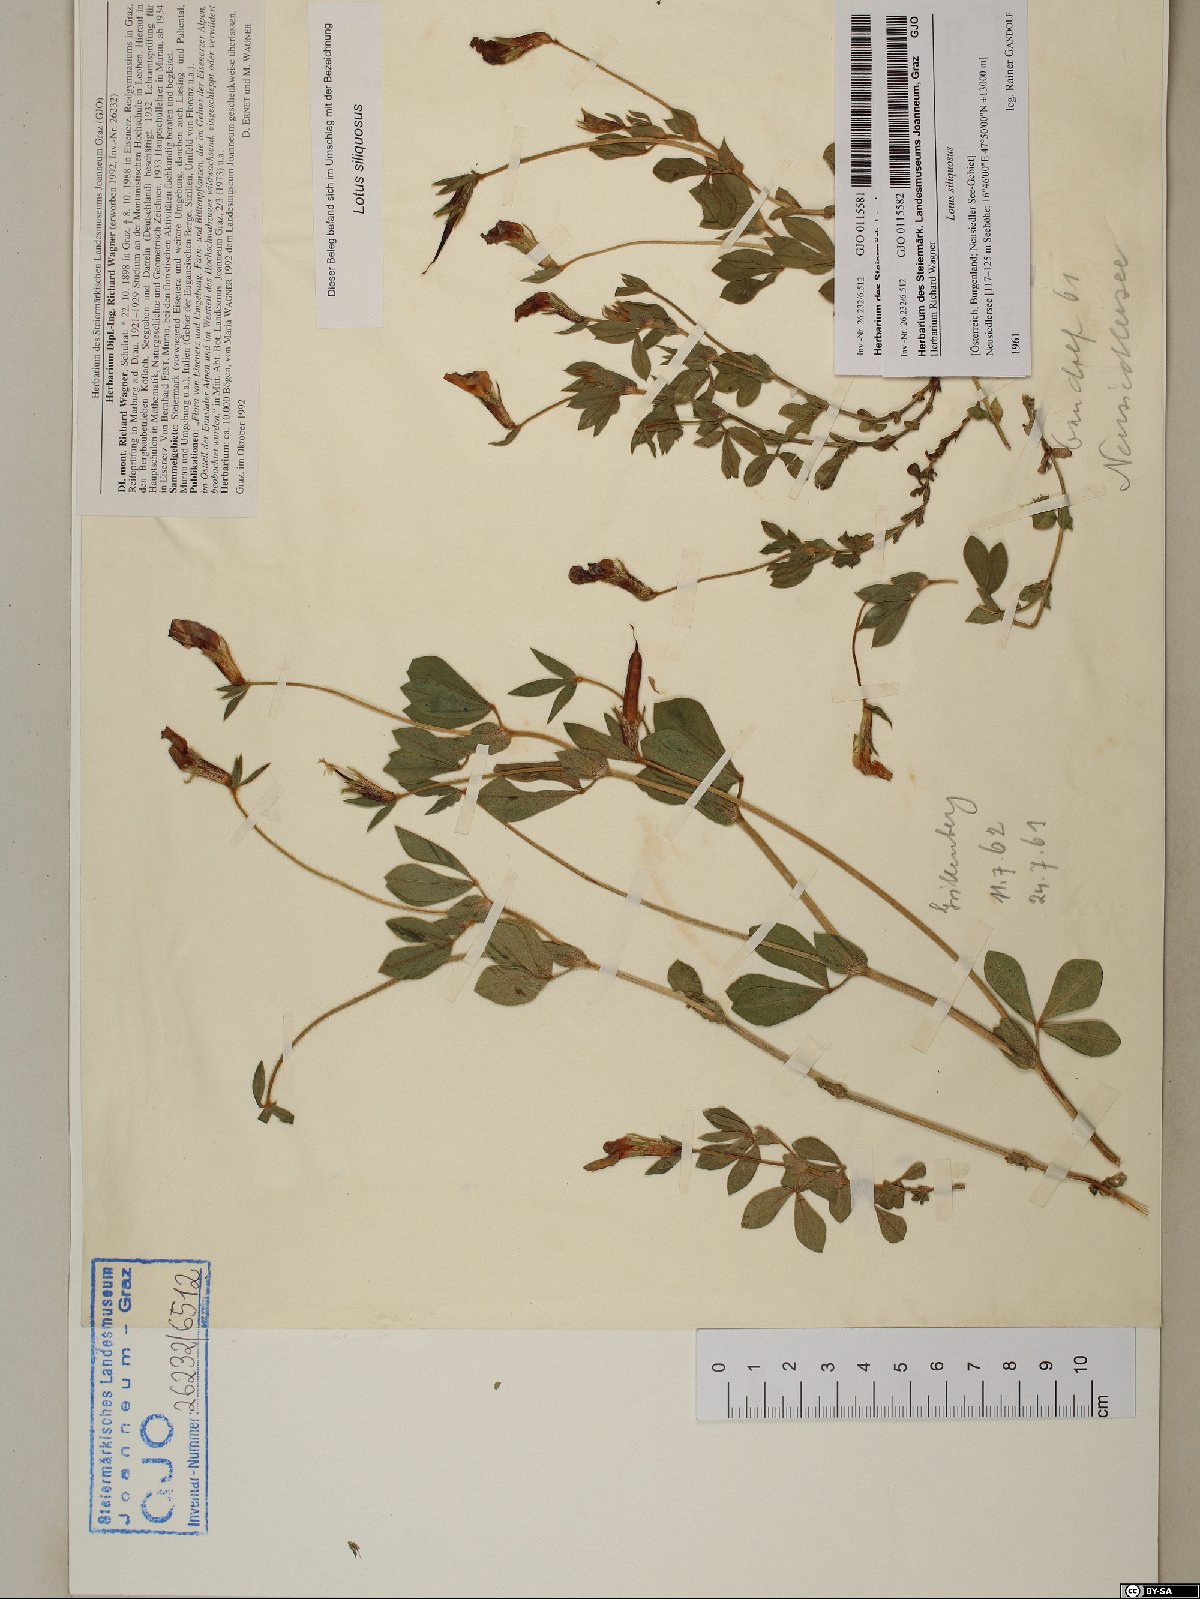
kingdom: Plantae
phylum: Tracheophyta
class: Magnoliopsida
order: Fabales
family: Fabaceae
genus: Lathyrus
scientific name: Lathyrus inconspicuus
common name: Inconspicuous pea
